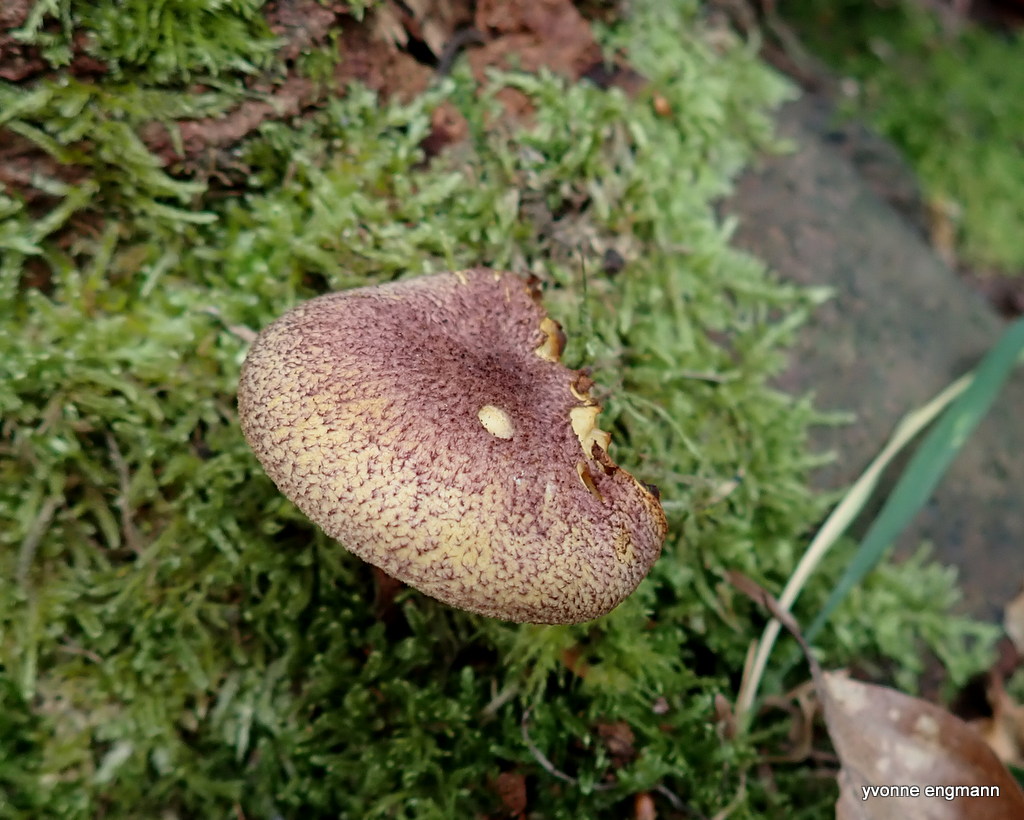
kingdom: Fungi
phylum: Basidiomycota
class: Agaricomycetes
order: Agaricales
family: Tricholomataceae
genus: Tricholomopsis
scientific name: Tricholomopsis rutilans
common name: purpur-væbnerhat
